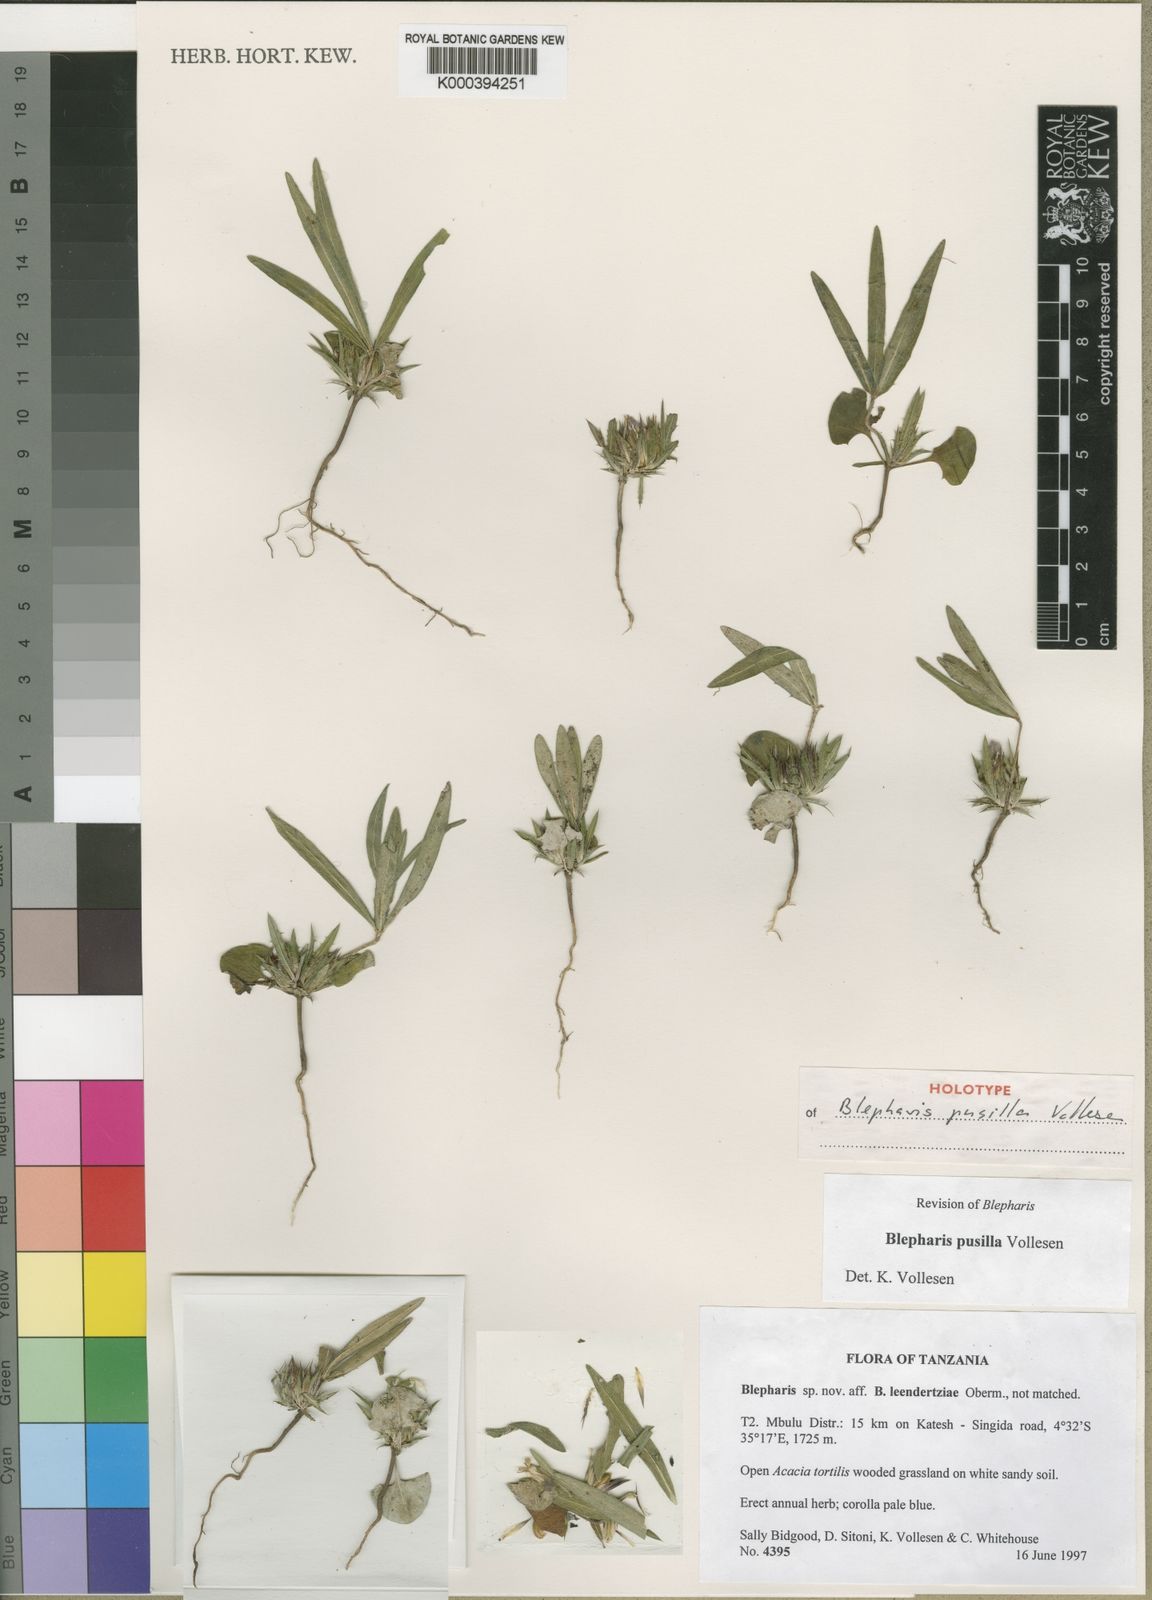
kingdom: Plantae
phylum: Tracheophyta
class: Magnoliopsida
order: Lamiales
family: Acanthaceae
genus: Blepharis
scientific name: Blepharis pusilla
